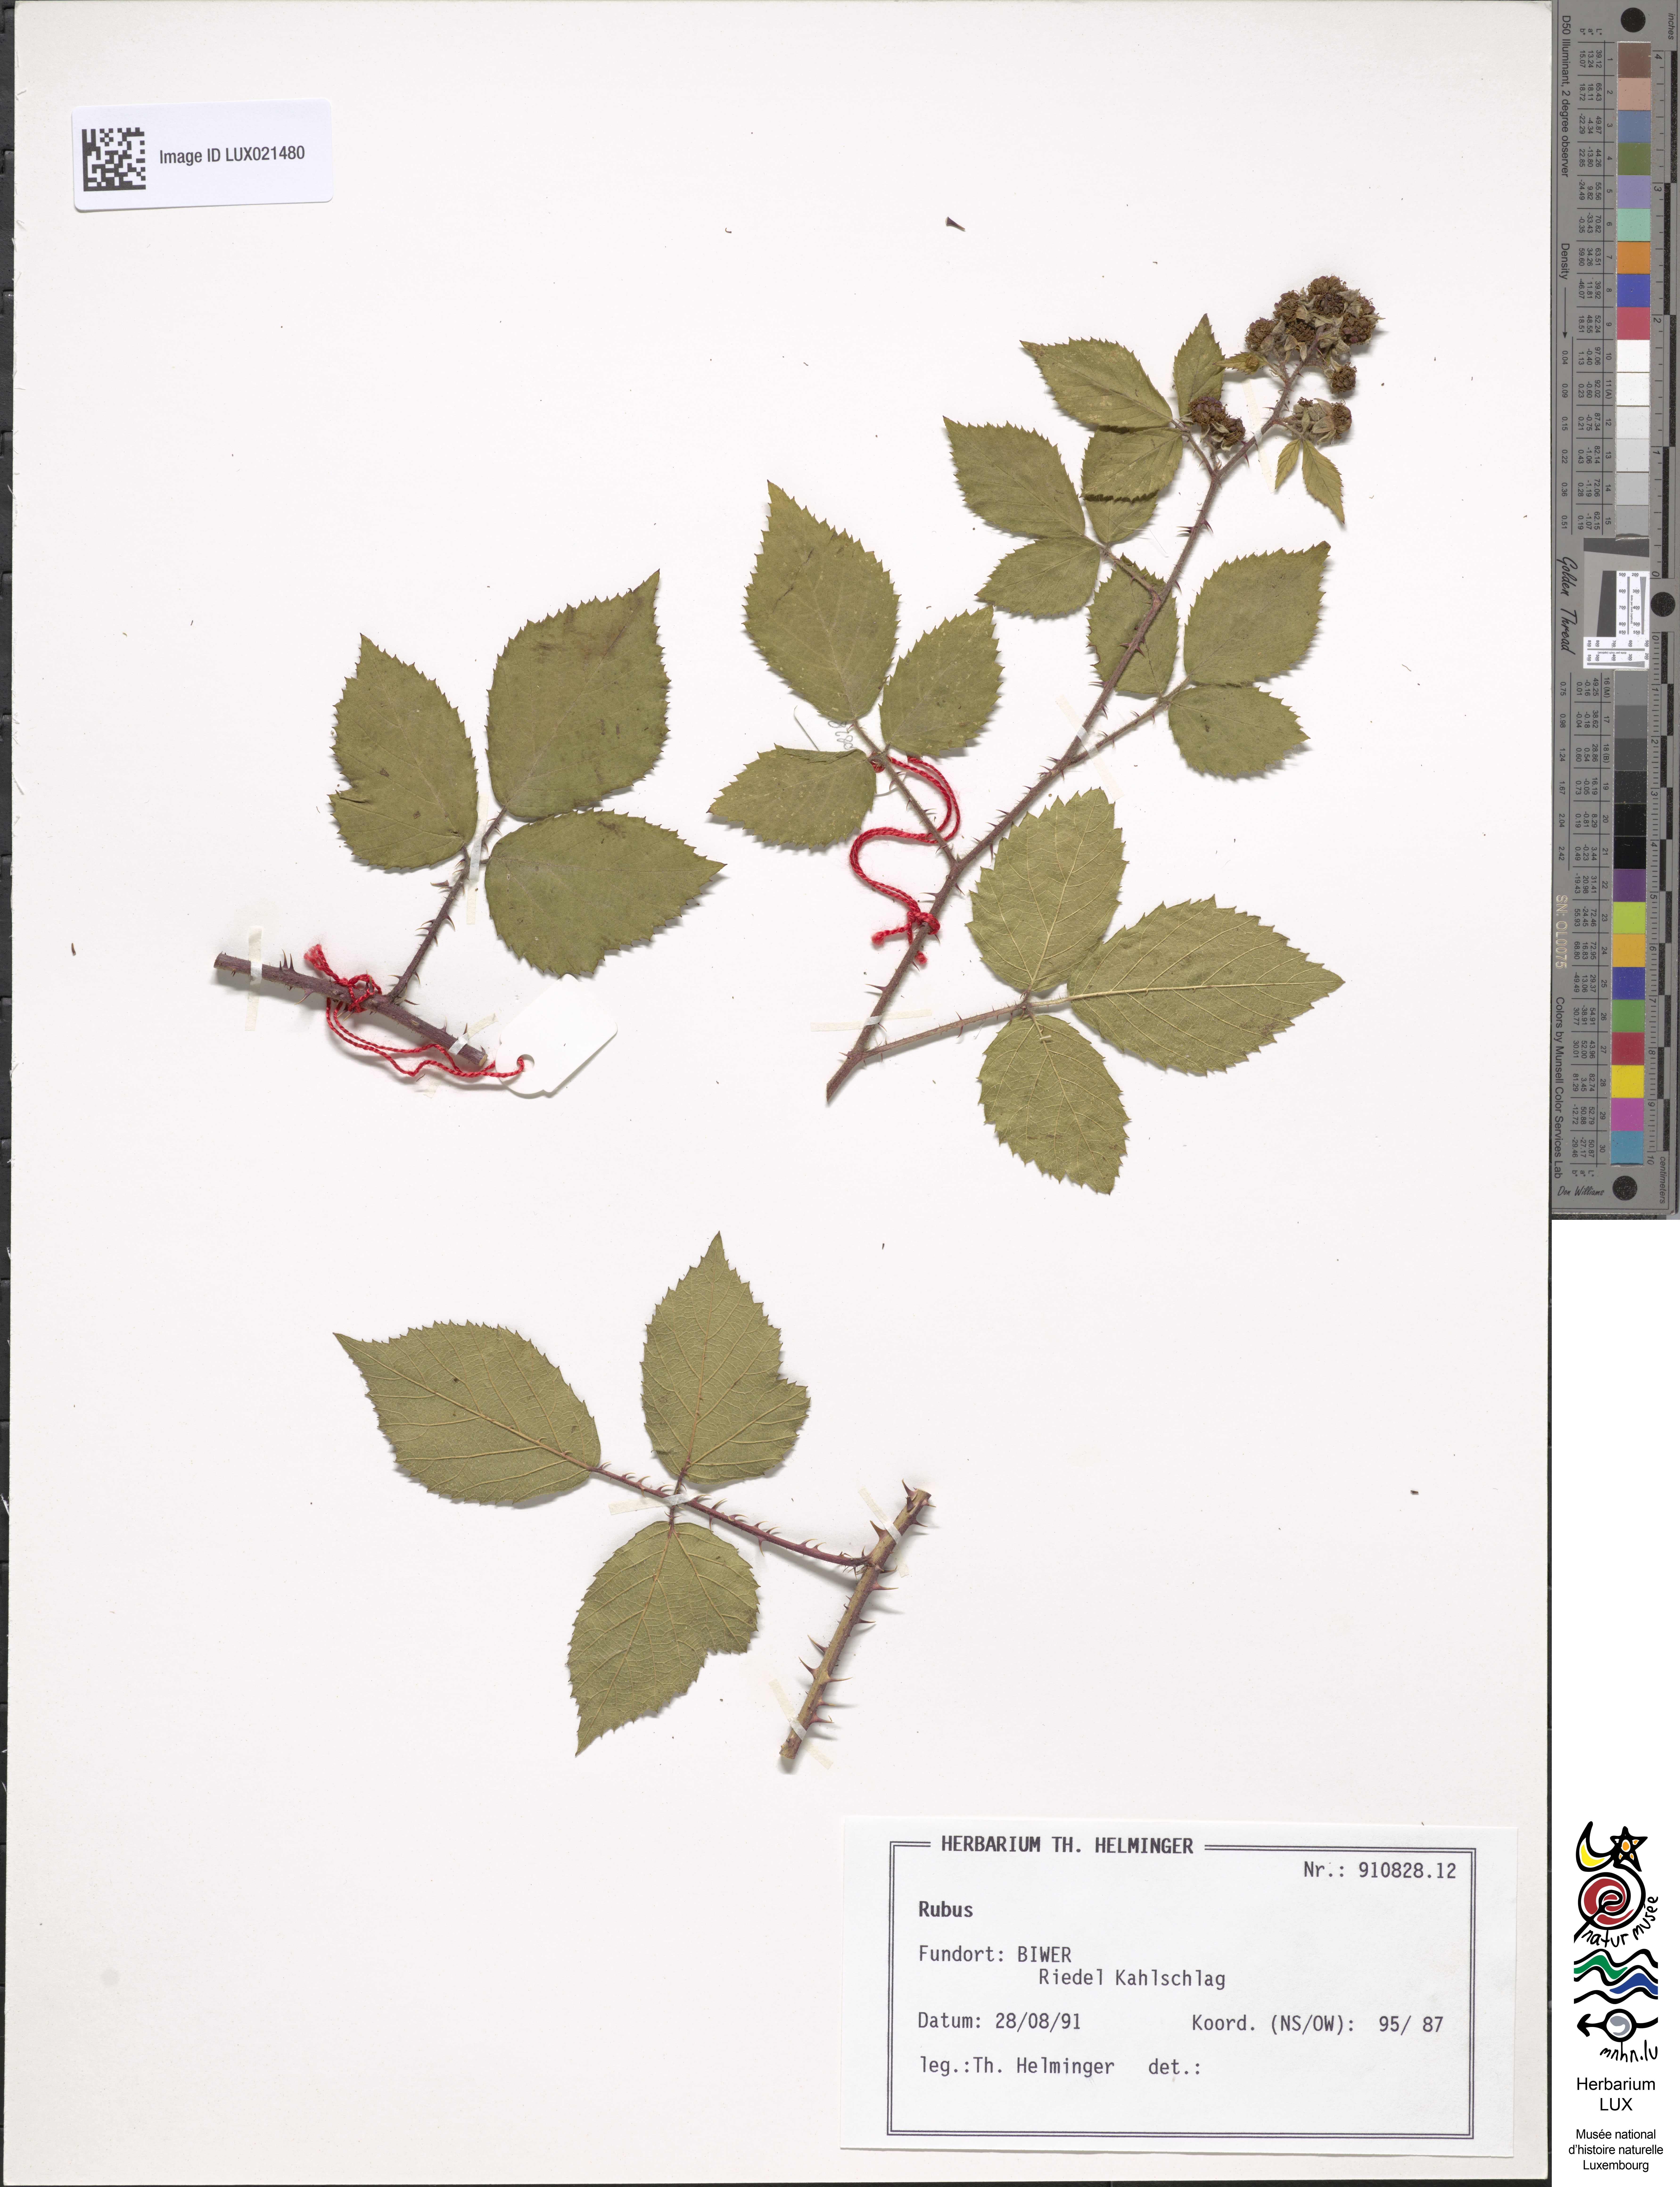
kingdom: Plantae
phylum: Tracheophyta
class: Magnoliopsida
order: Rosales
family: Rosaceae
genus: Rubus
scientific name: Rubus
